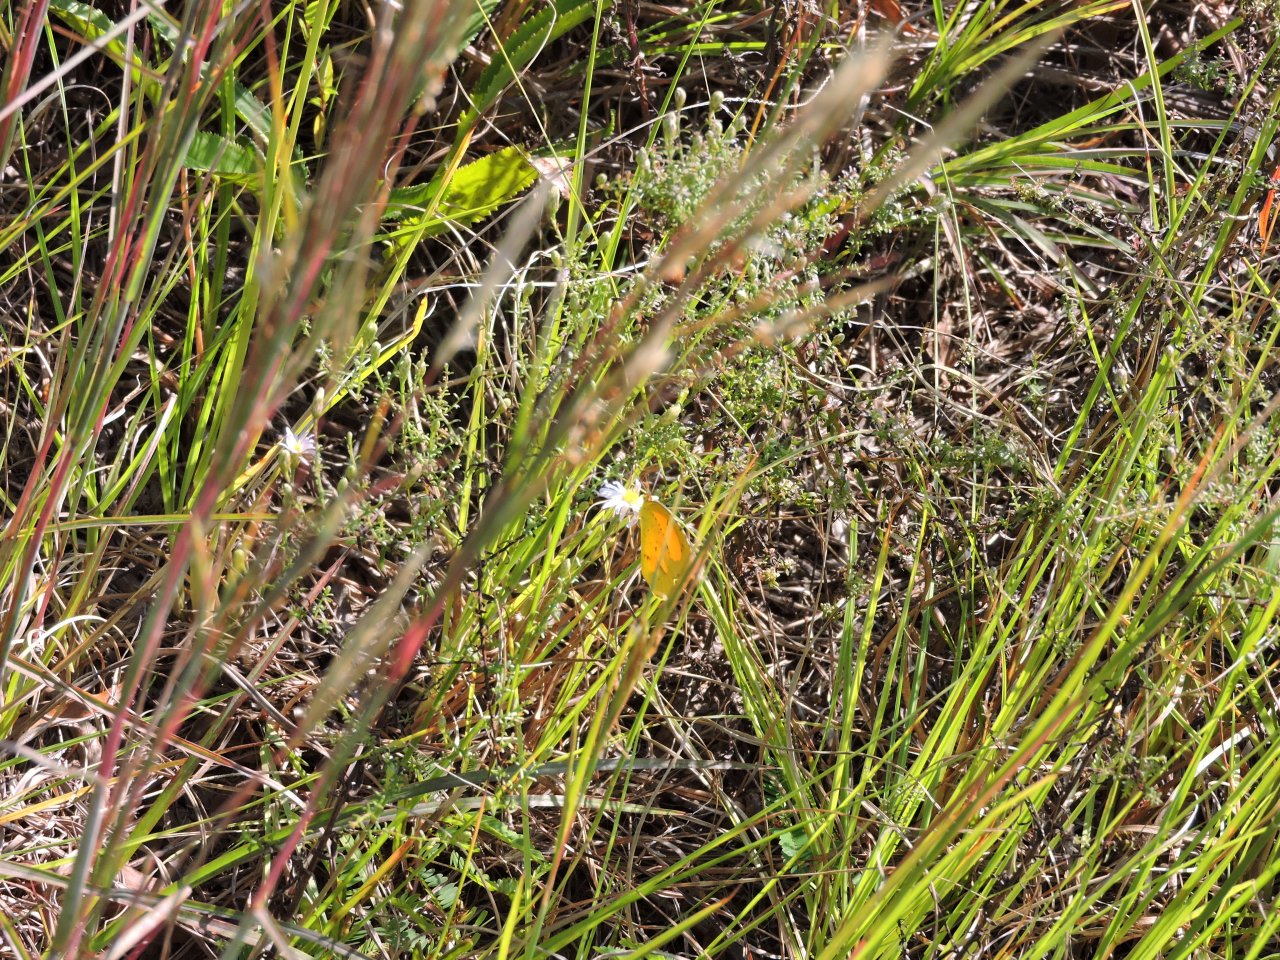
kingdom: Animalia
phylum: Arthropoda
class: Insecta
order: Lepidoptera
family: Pieridae
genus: Abaeis
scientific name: Abaeis nicippe
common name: Sleepy Orange
